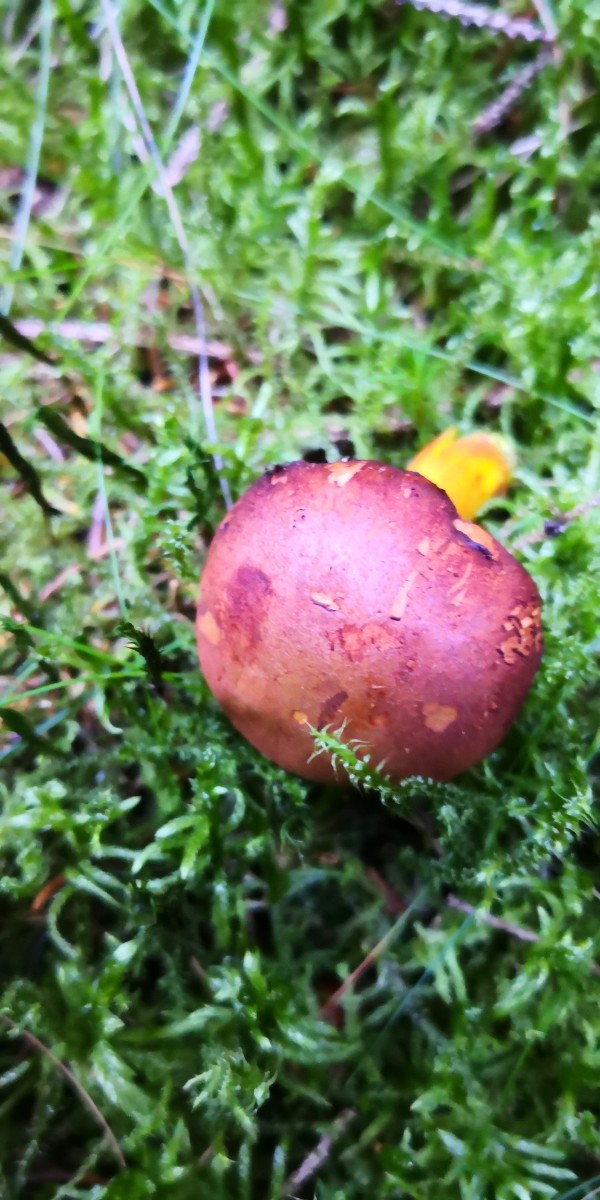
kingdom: Fungi
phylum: Basidiomycota
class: Agaricomycetes
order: Boletales
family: Boletaceae
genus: Chalciporus
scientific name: Chalciporus piperatus
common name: peberrørhat
